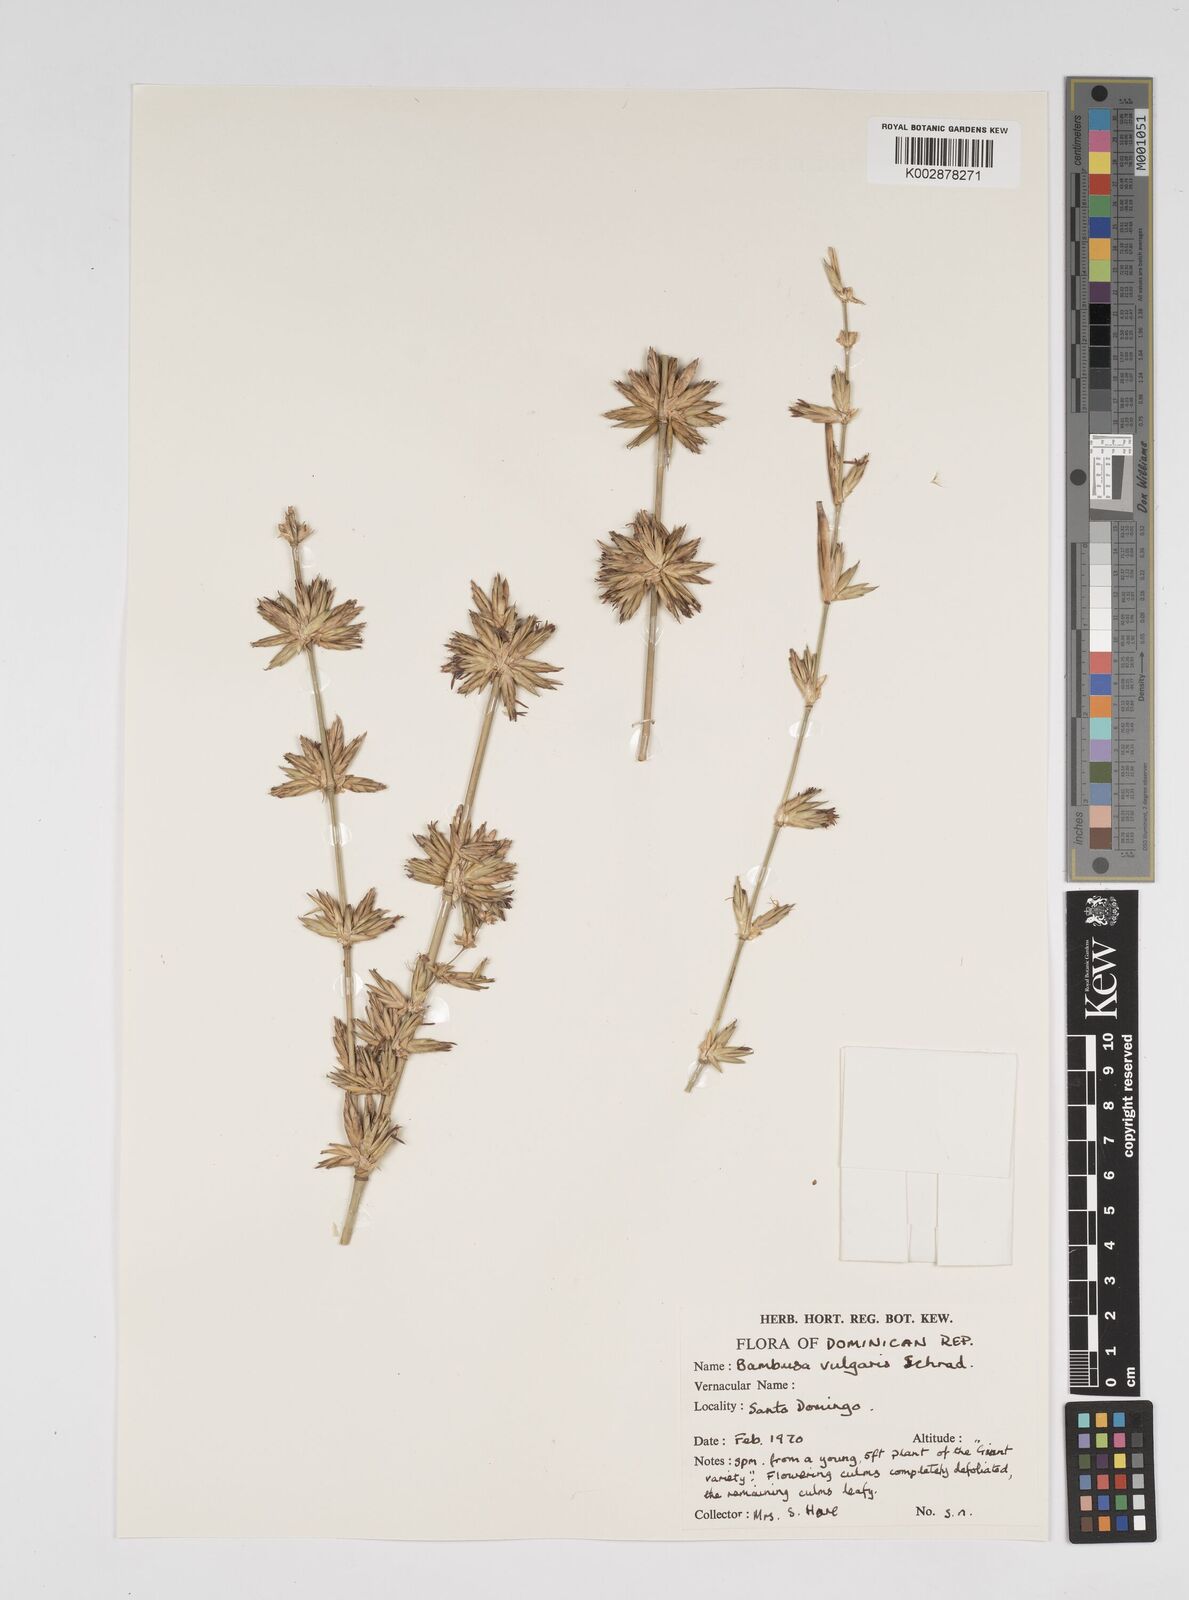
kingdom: Plantae
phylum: Tracheophyta
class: Liliopsida
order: Poales
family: Poaceae
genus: Bambusa
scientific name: Bambusa vulgaris
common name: Common bamboo
